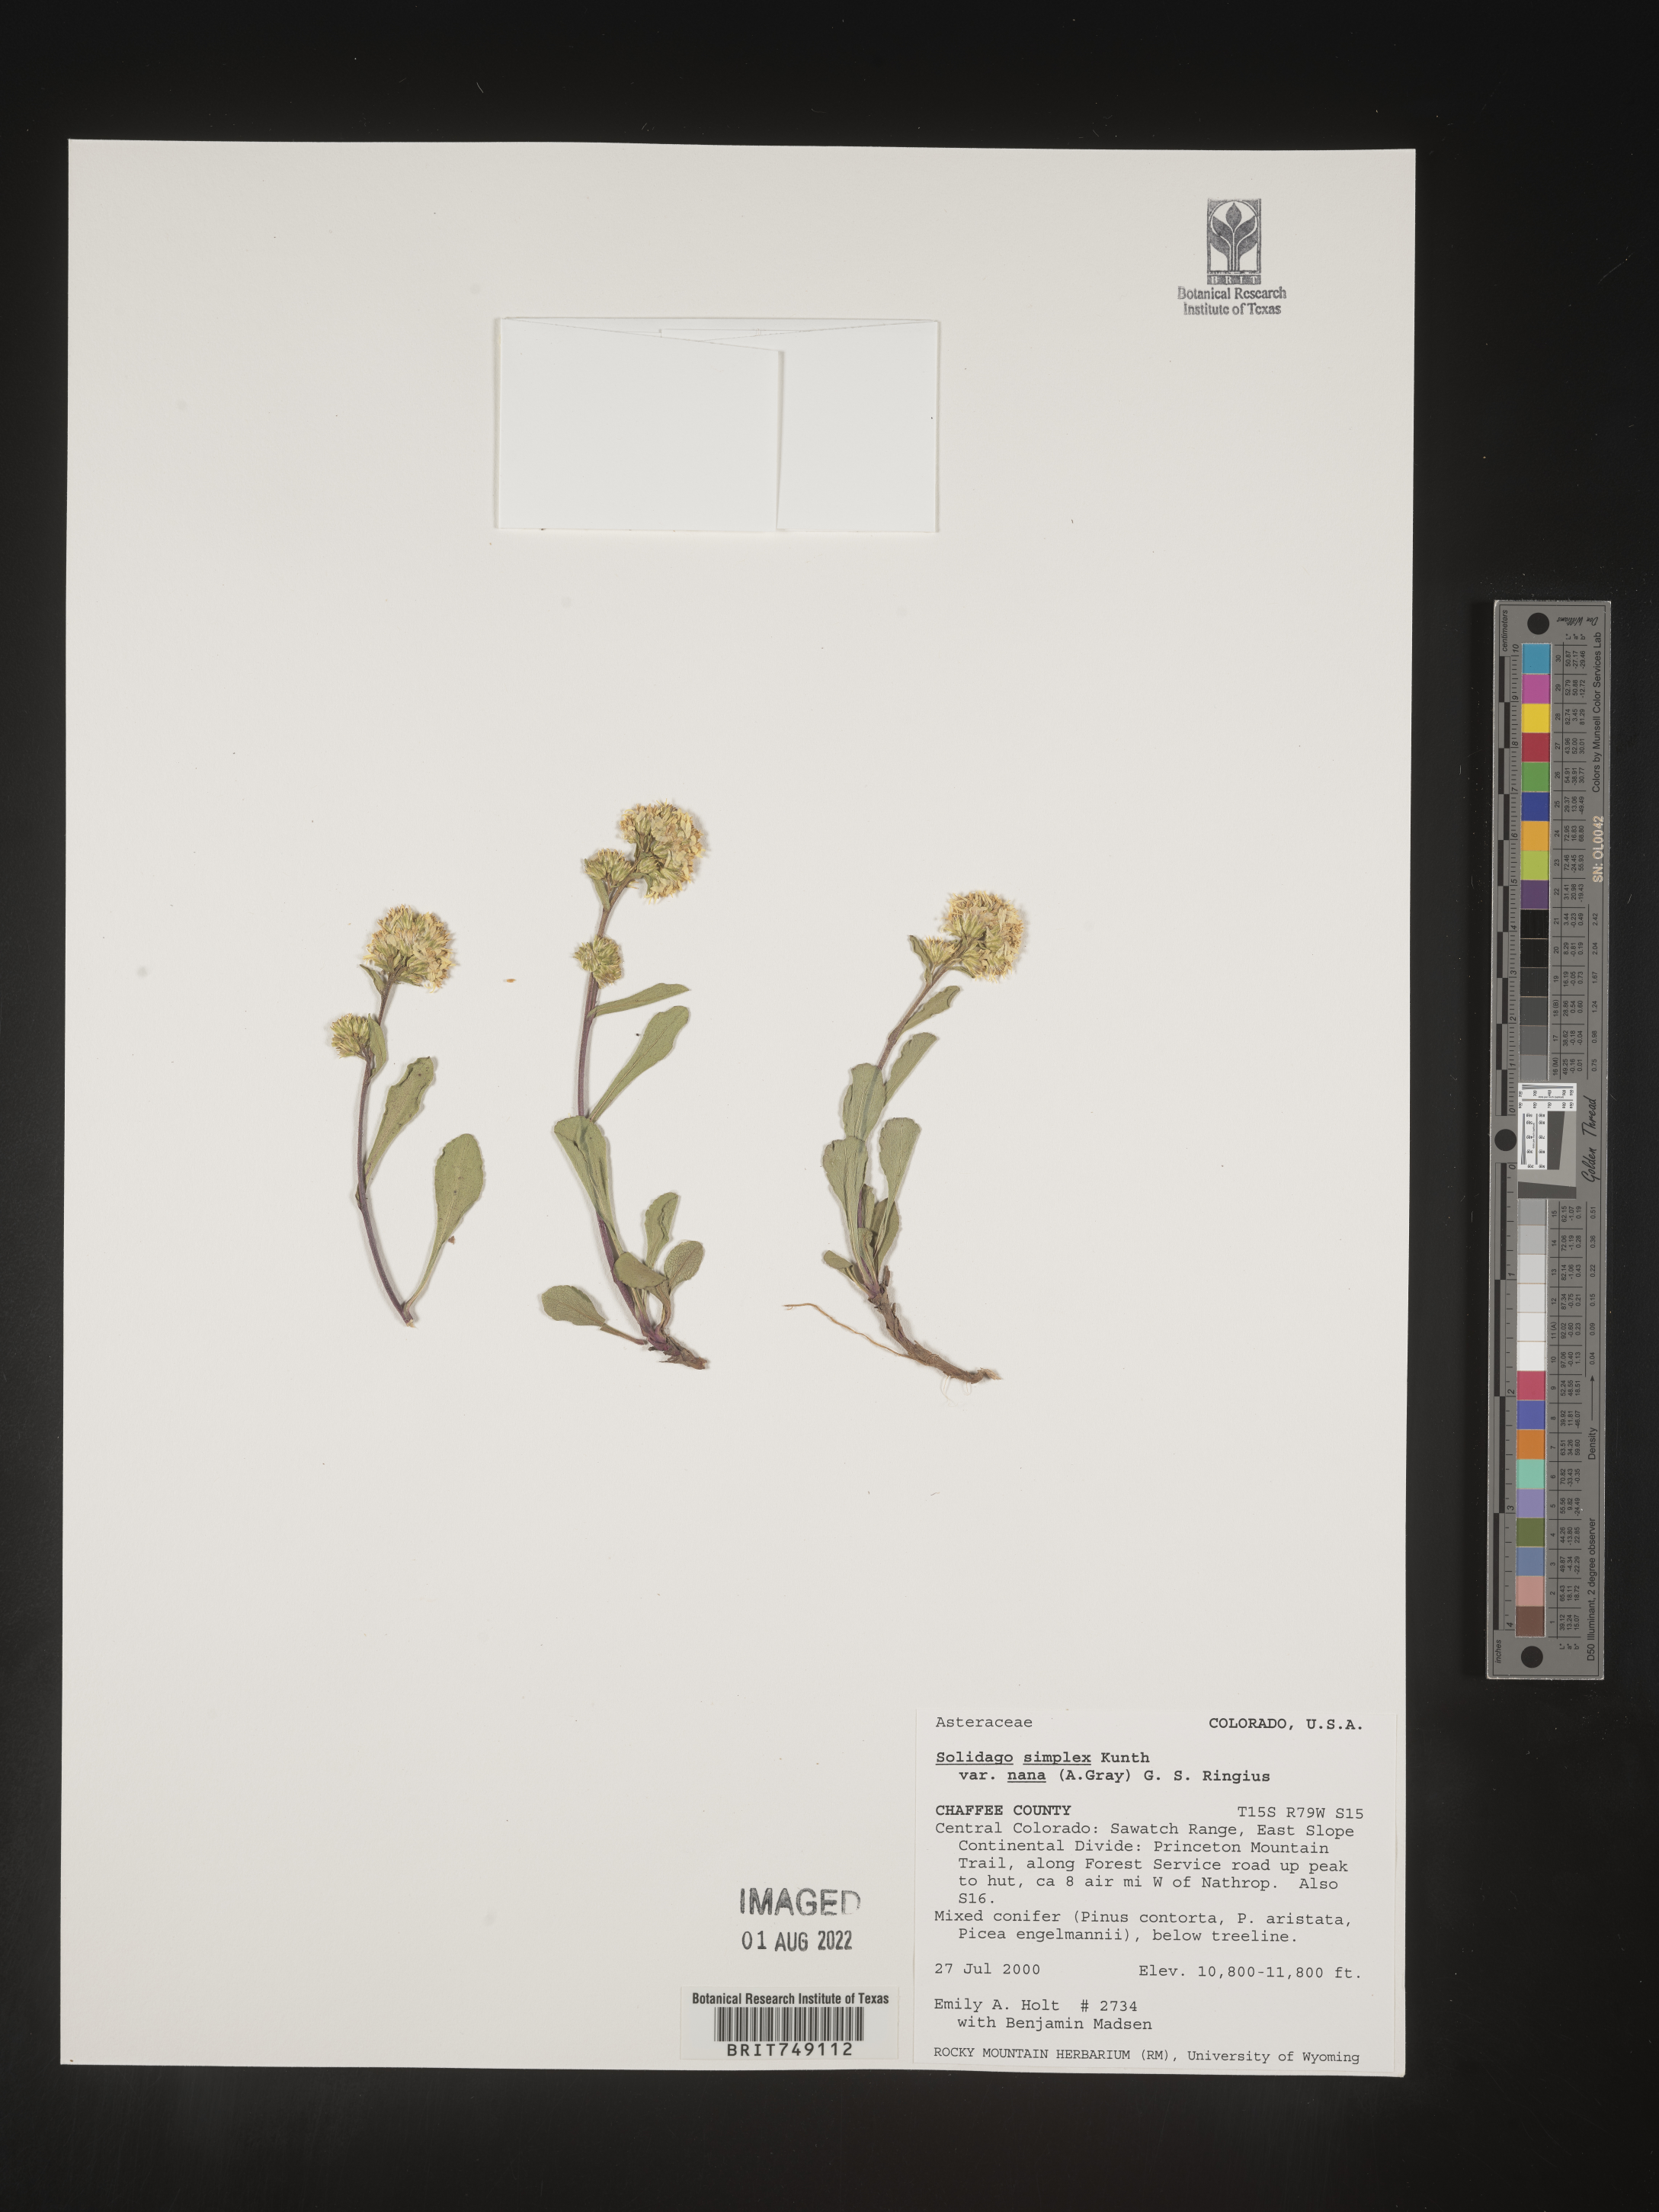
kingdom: Plantae
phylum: Tracheophyta
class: Magnoliopsida
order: Asterales
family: Asteraceae
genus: Solidago
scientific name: Solidago simplex
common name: Sticky goldenrod
